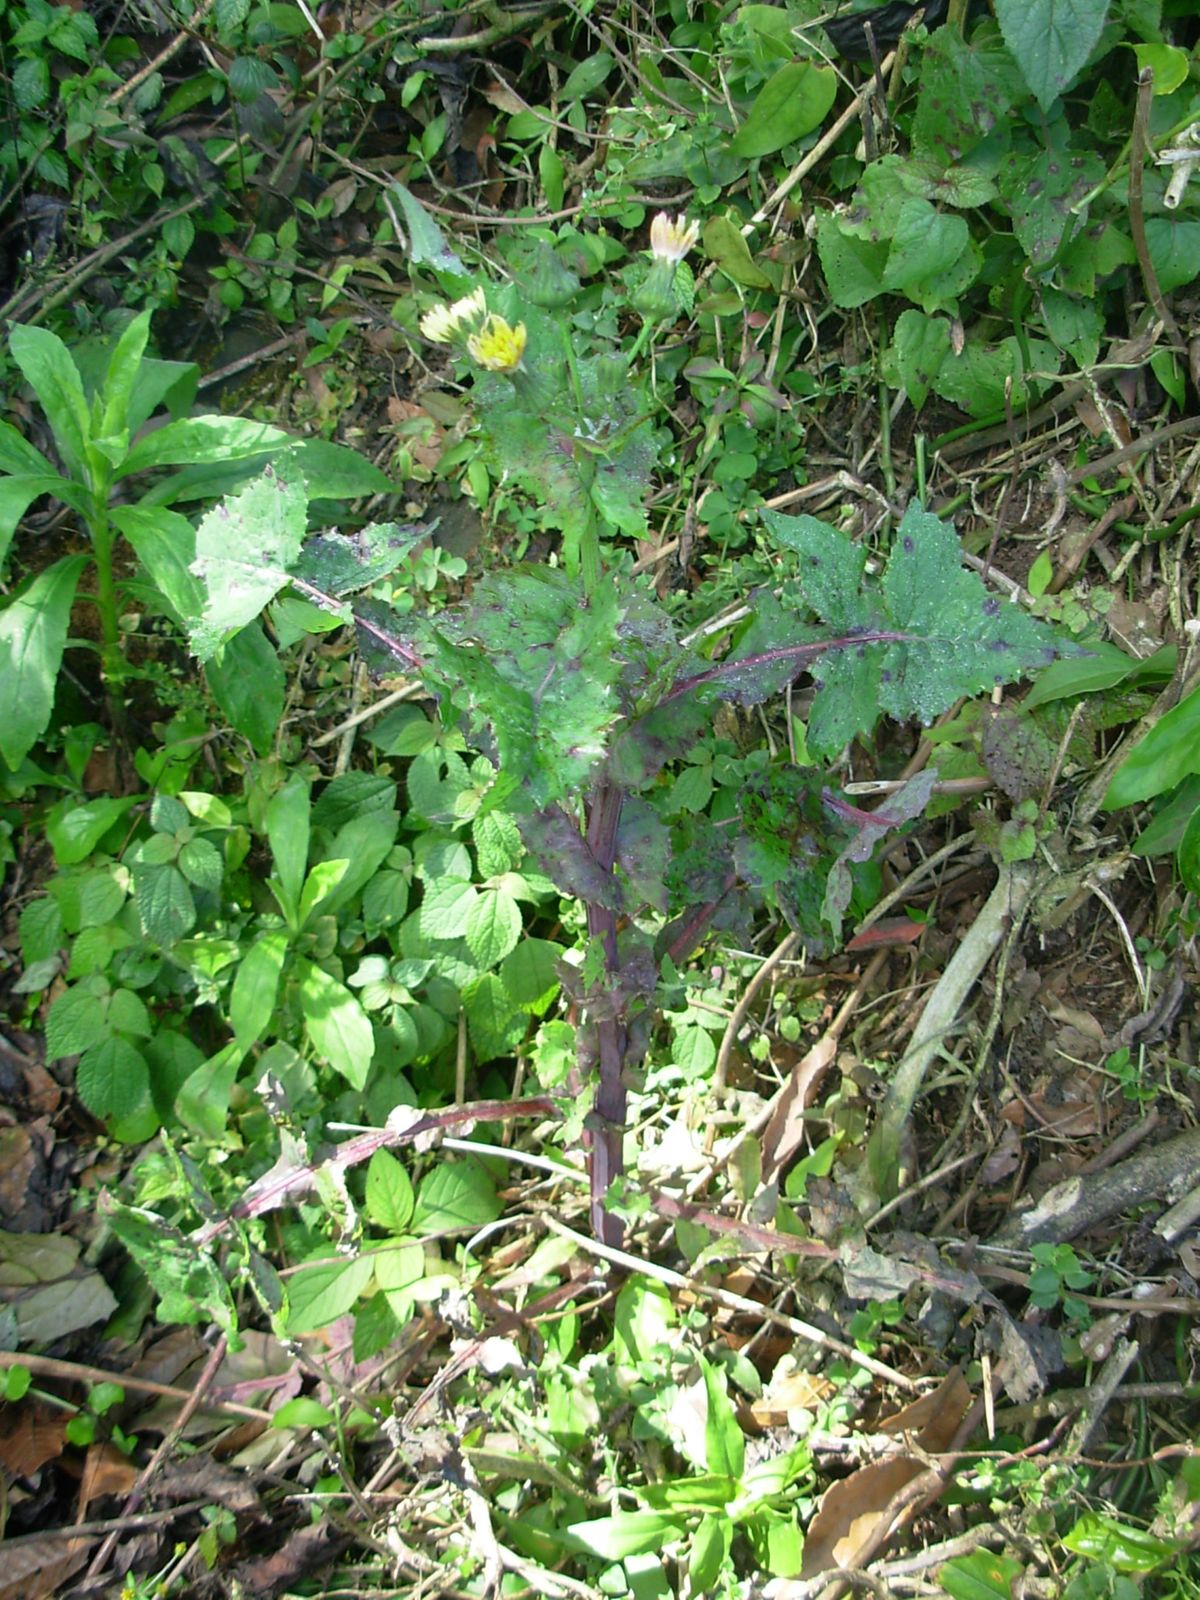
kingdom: Plantae
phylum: Tracheophyta
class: Magnoliopsida
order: Asterales
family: Asteraceae
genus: Sonchus
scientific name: Sonchus oleraceus
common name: Common sowthistle
